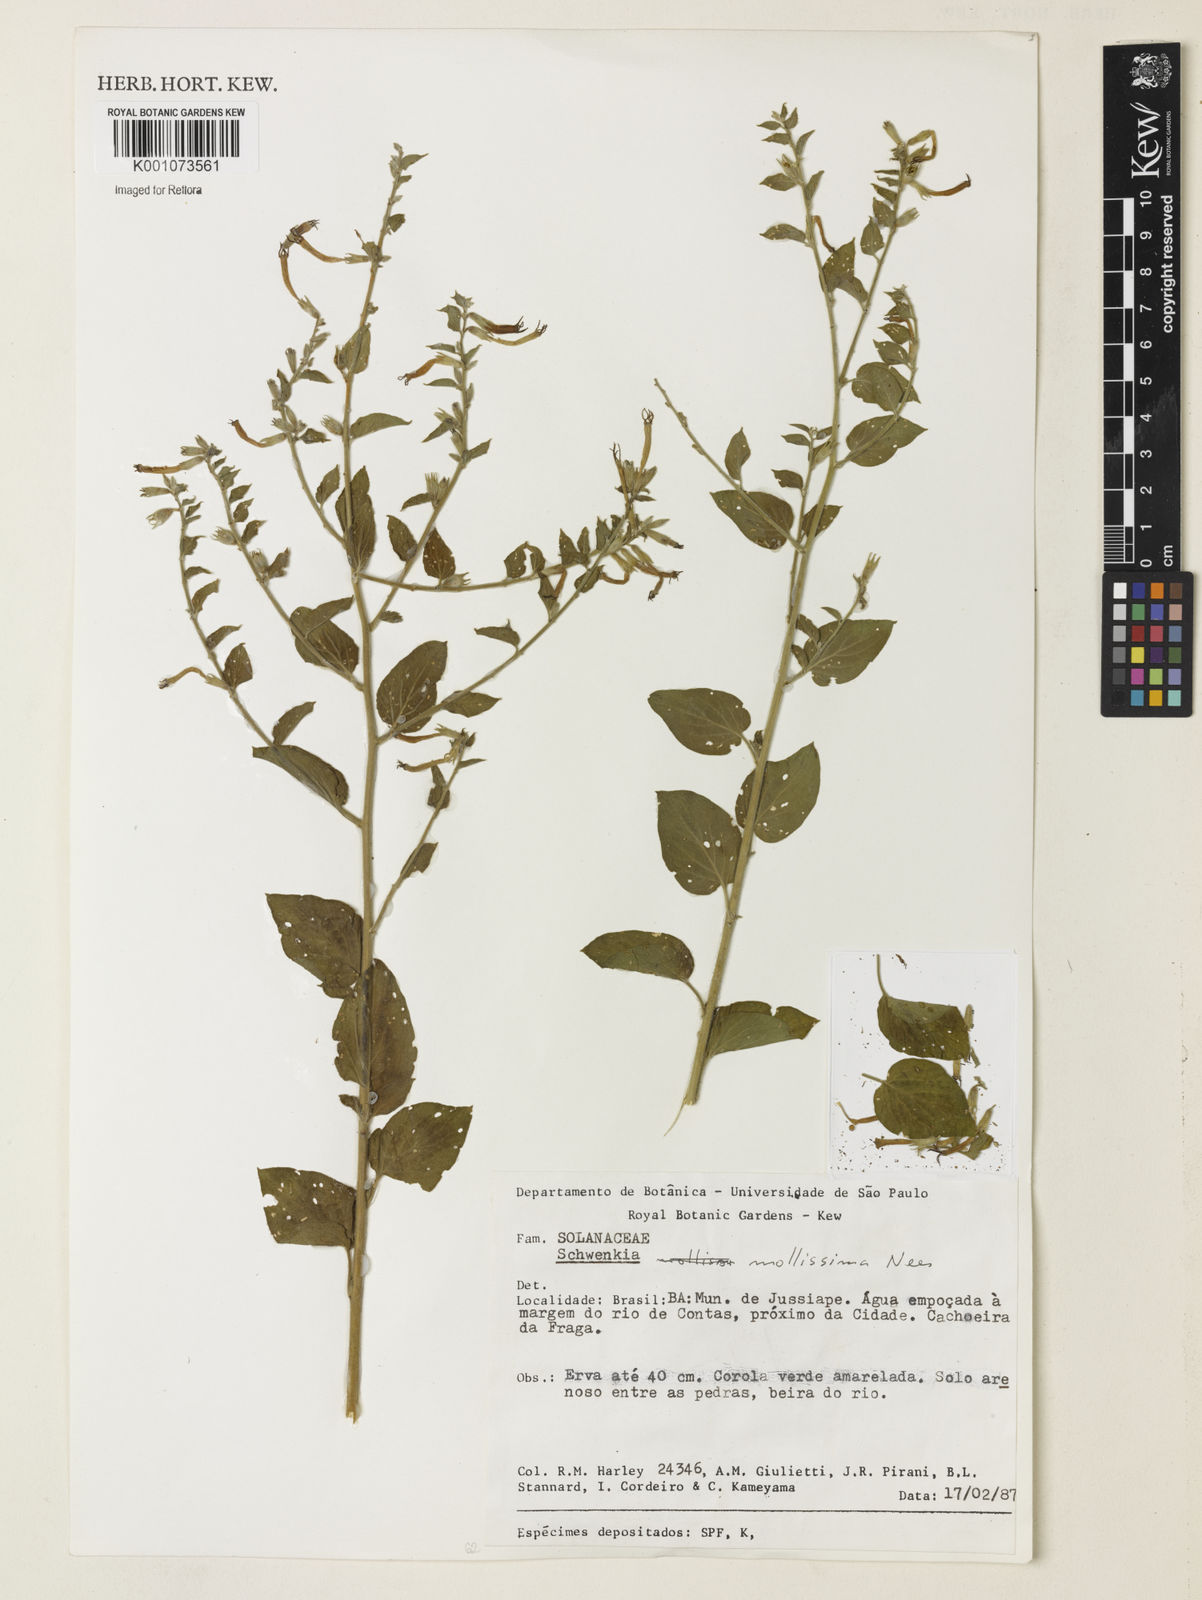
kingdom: Plantae
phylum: Tracheophyta
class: Magnoliopsida
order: Solanales
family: Solanaceae
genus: Schwenckia
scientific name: Schwenckia mollissima
